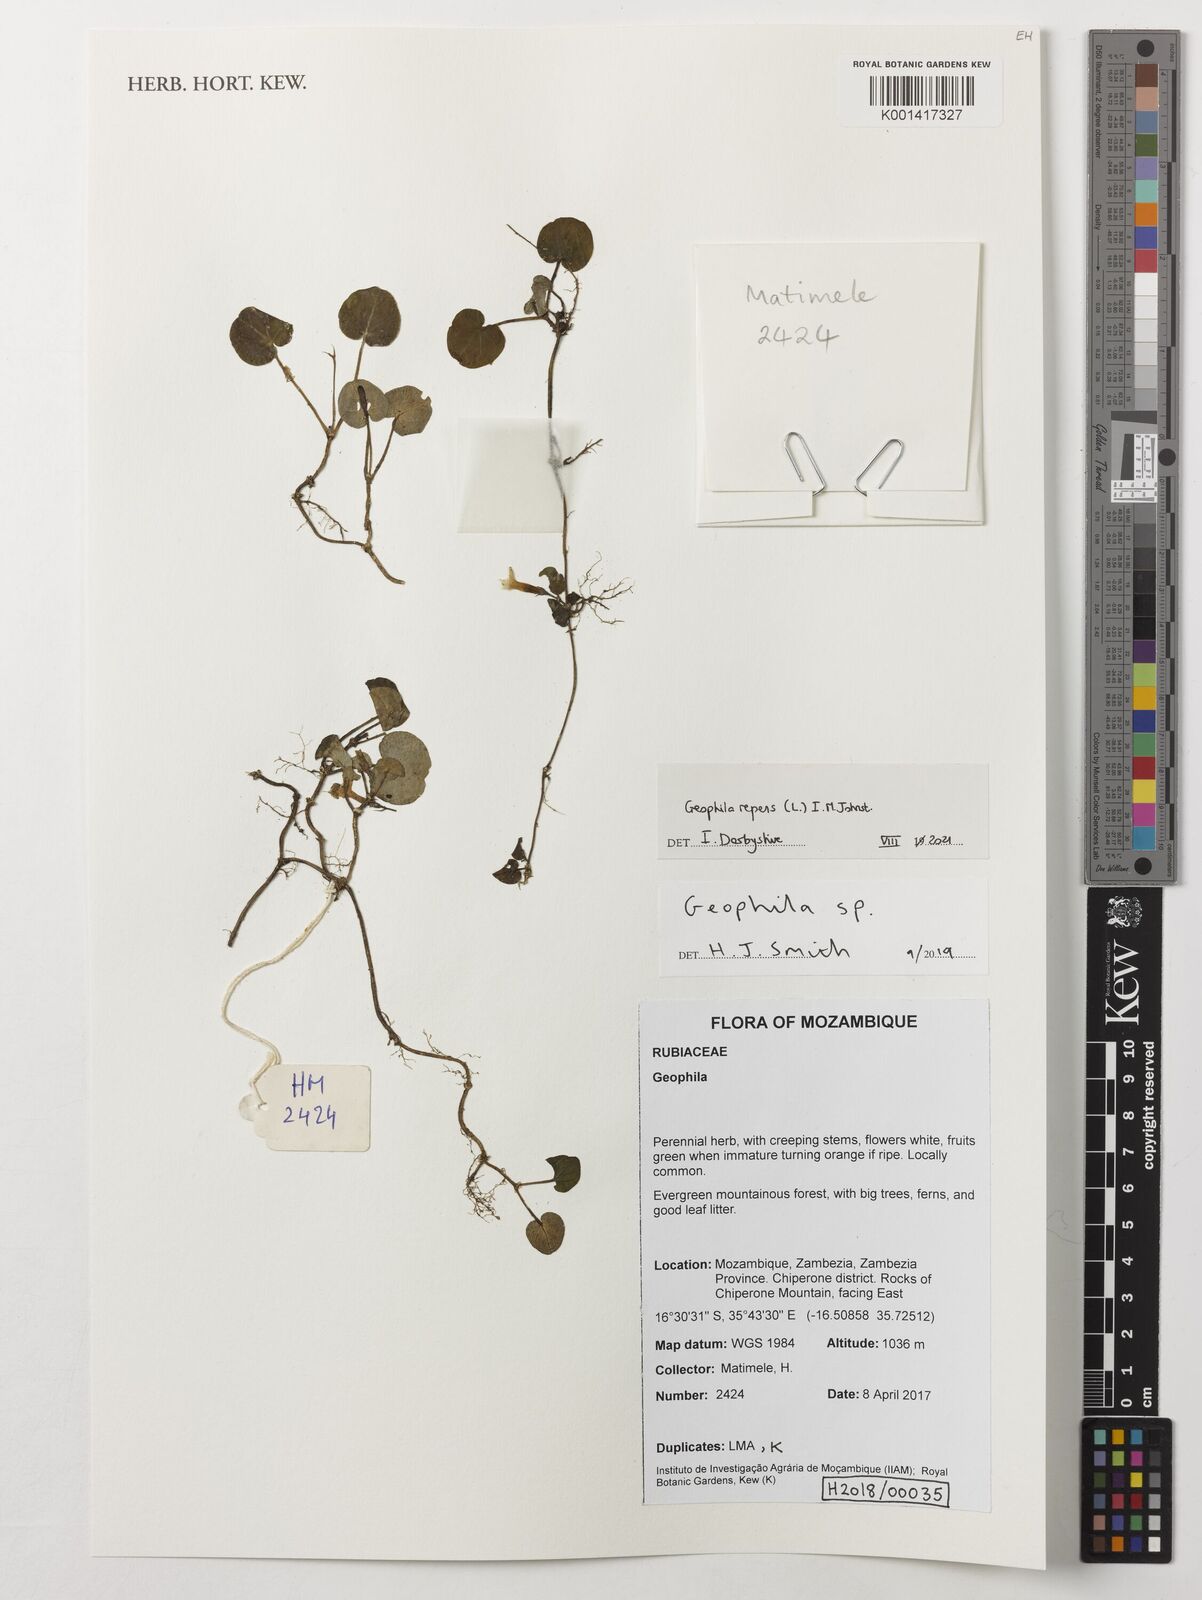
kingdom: Plantae
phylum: Tracheophyta
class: Magnoliopsida
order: Gentianales
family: Rubiaceae
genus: Geophila
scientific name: Geophila repens
